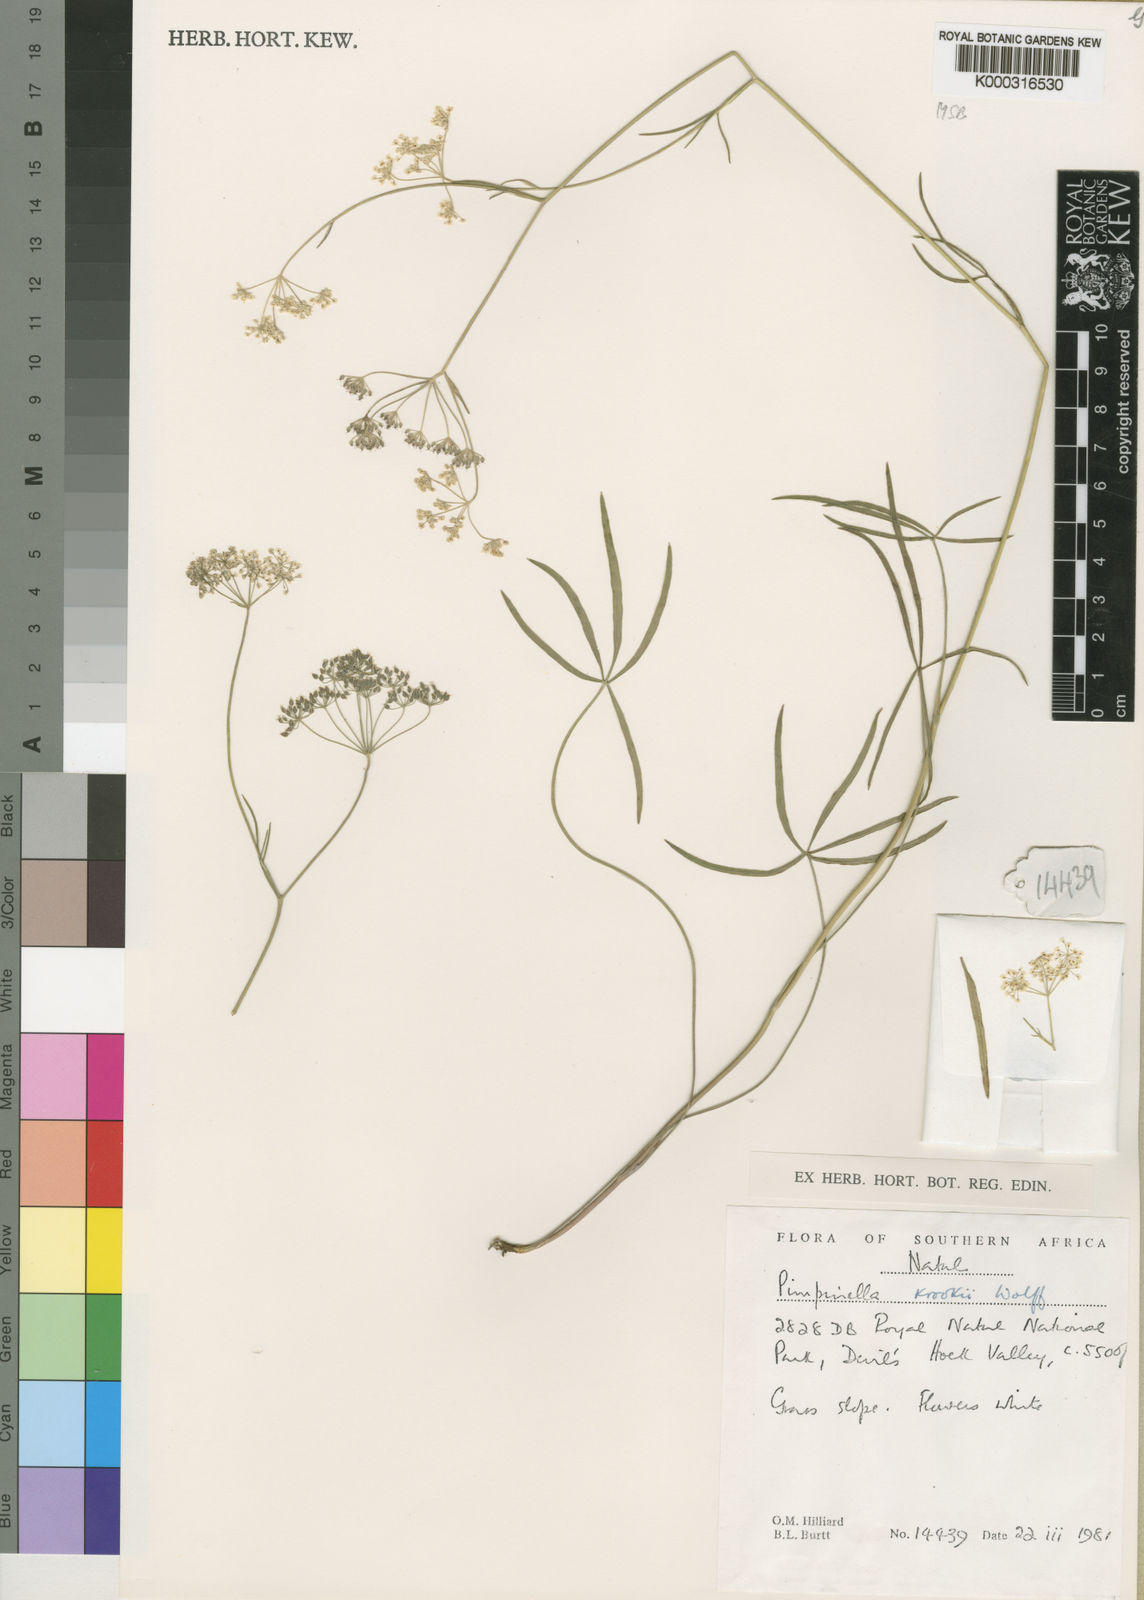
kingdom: Plantae
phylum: Tracheophyta
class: Magnoliopsida
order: Apiales
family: Apiaceae
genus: Pimpinella
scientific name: Pimpinella caffra
